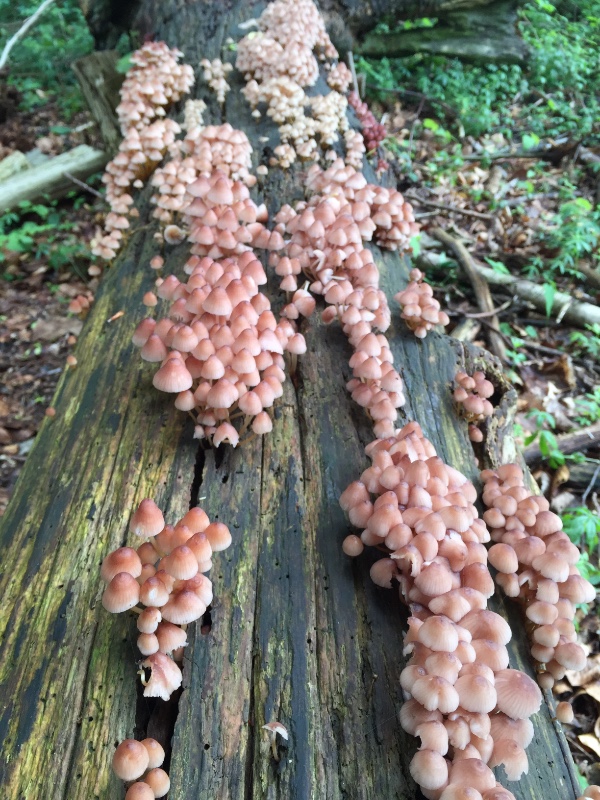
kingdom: Fungi
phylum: Basidiomycota
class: Agaricomycetes
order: Agaricales
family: Mycenaceae
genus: Mycena
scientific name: Mycena renati
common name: smuk huesvamp
